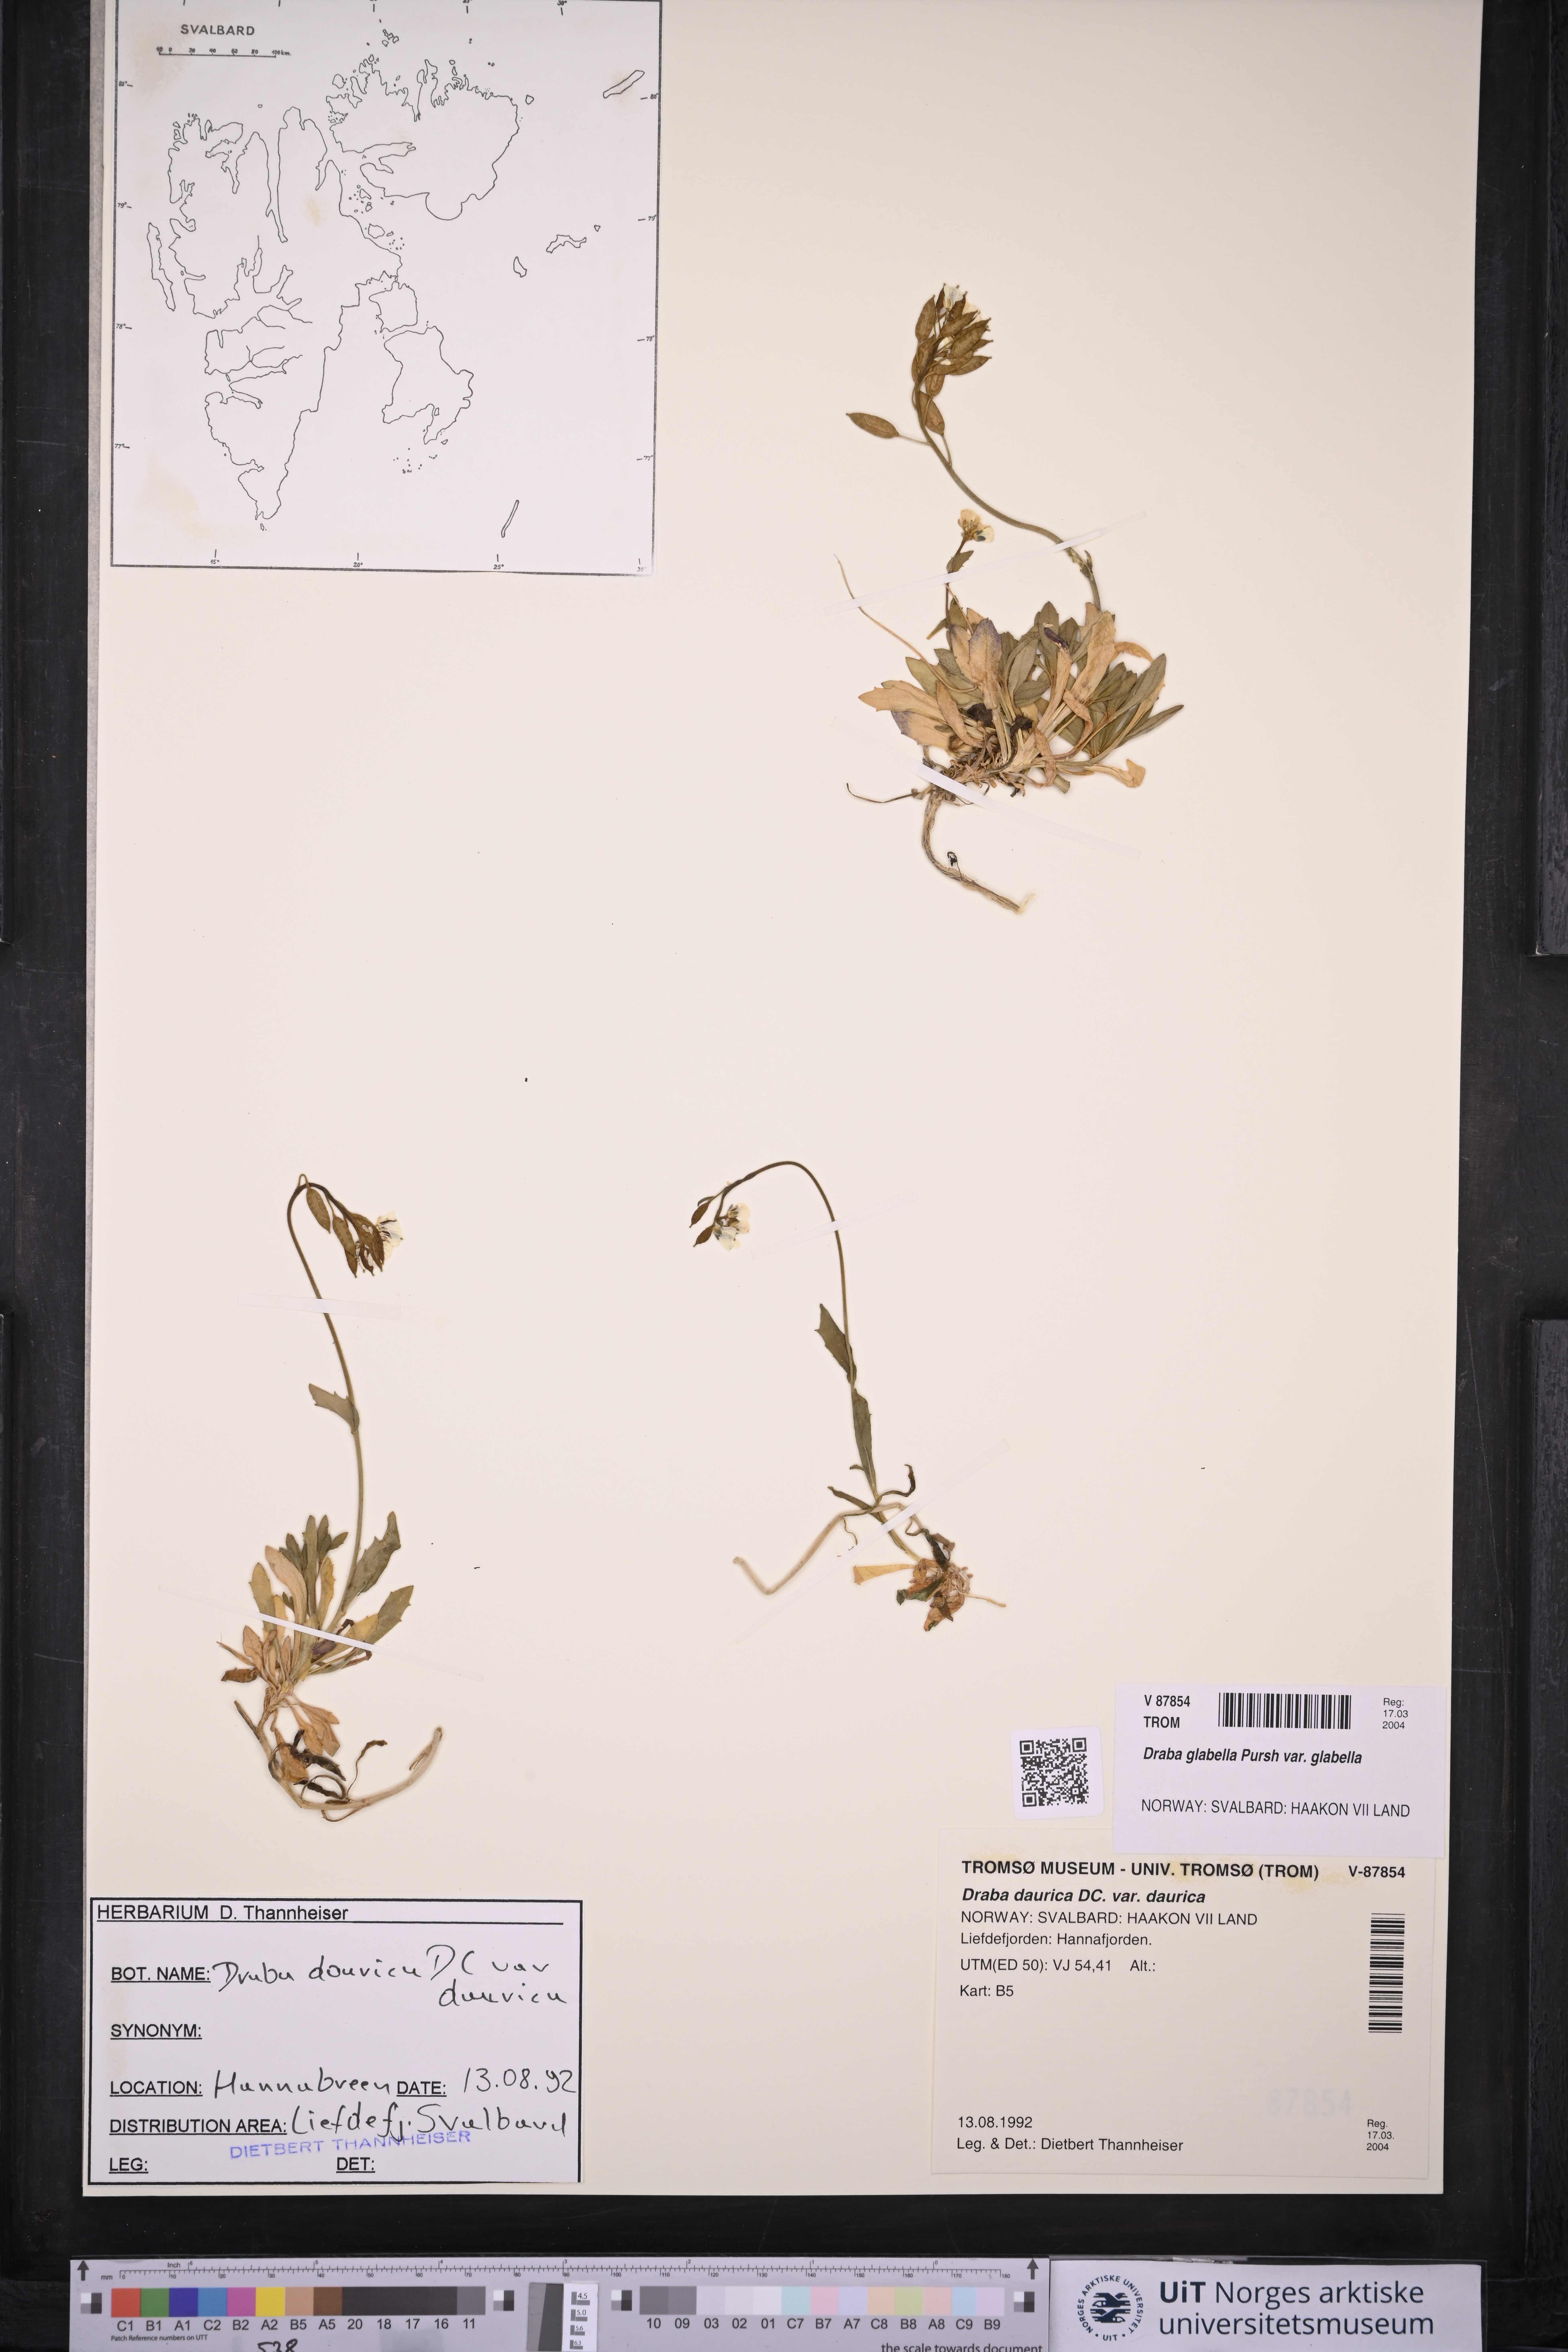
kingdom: Plantae
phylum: Tracheophyta
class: Magnoliopsida
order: Brassicales
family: Brassicaceae
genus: Draba
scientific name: Draba glabella
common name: Glaucous draba
